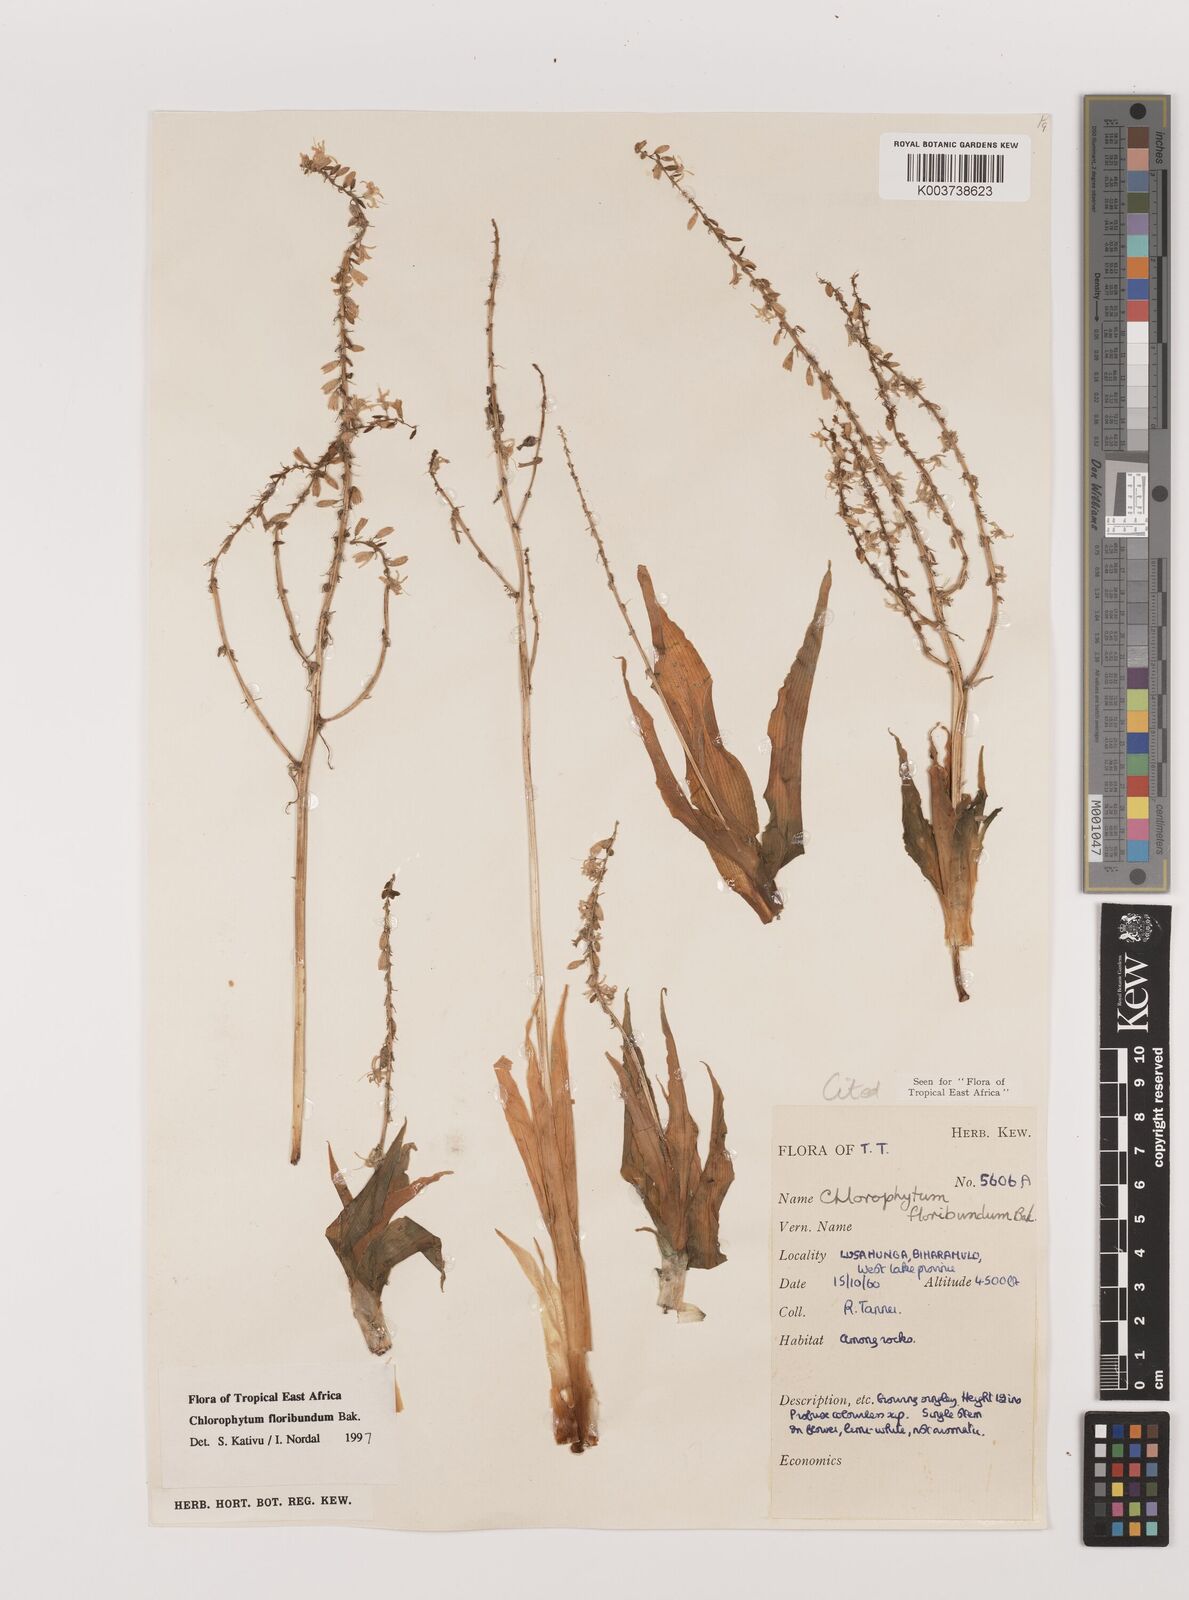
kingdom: Plantae
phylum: Tracheophyta
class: Liliopsida
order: Asparagales
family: Asparagaceae
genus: Chlorophytum
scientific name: Chlorophytum gallabatense
